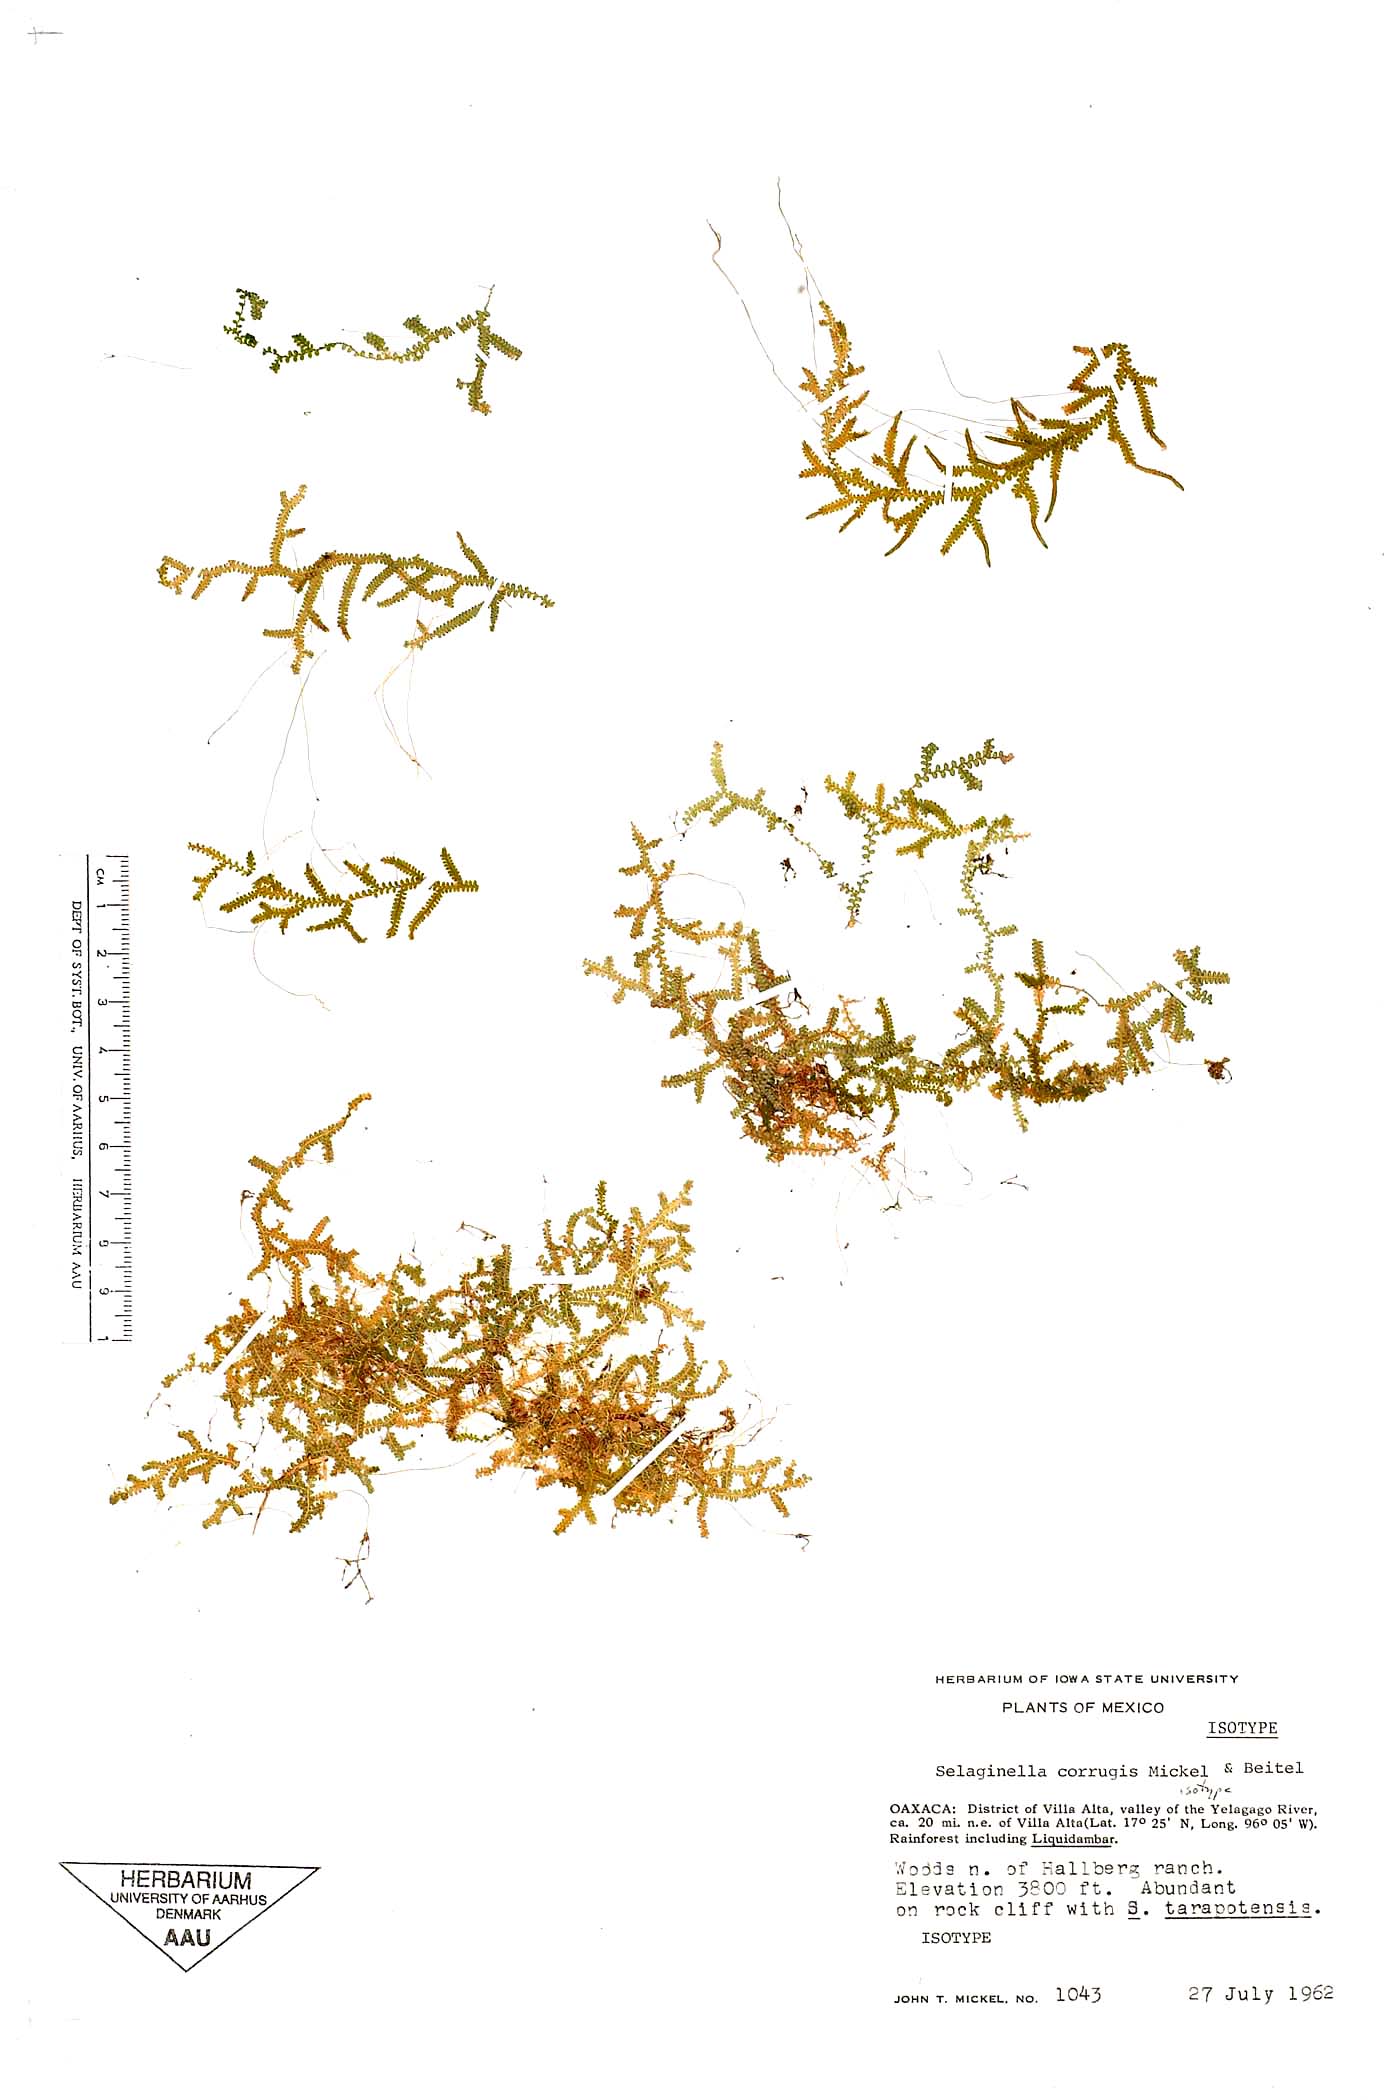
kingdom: Plantae
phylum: Tracheophyta
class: Lycopodiopsida
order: Selaginellales
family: Selaginellaceae
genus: Selaginella
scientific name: Selaginella corrugis
